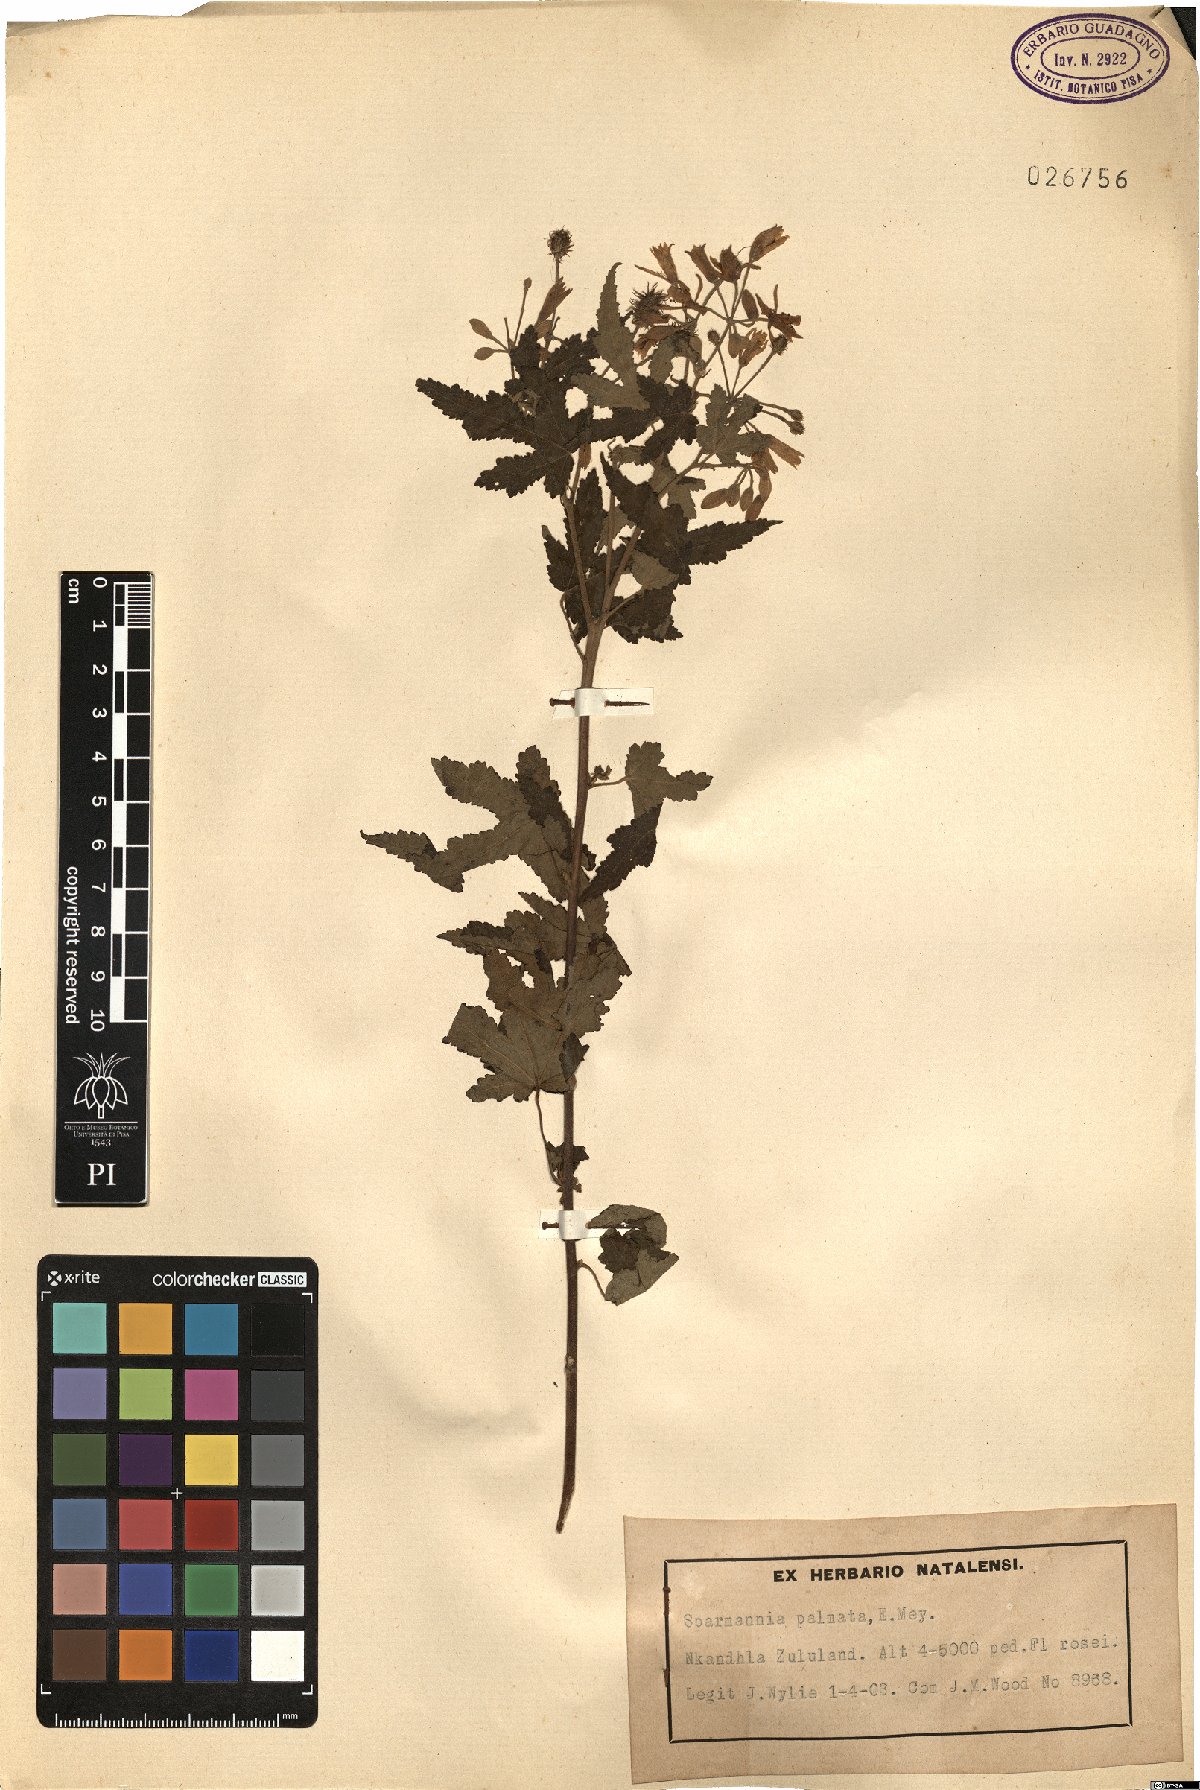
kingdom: Plantae
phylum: Tracheophyta
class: Magnoliopsida
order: Malvales
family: Malvaceae
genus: Sparmannia
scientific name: Sparmannia palmata
